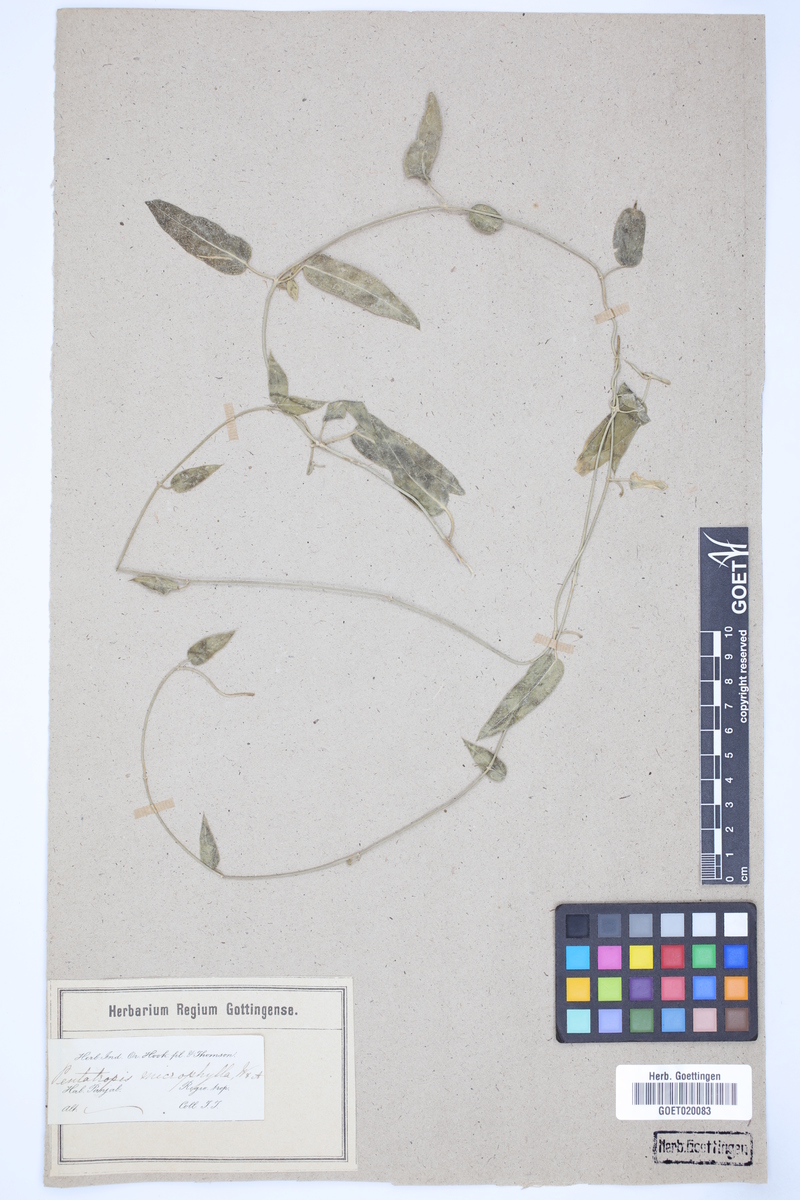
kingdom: Plantae
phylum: Tracheophyta
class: Magnoliopsida
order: Gentianales
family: Asclepiadaceae
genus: Pentatropis
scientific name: Pentatropis microphylla
